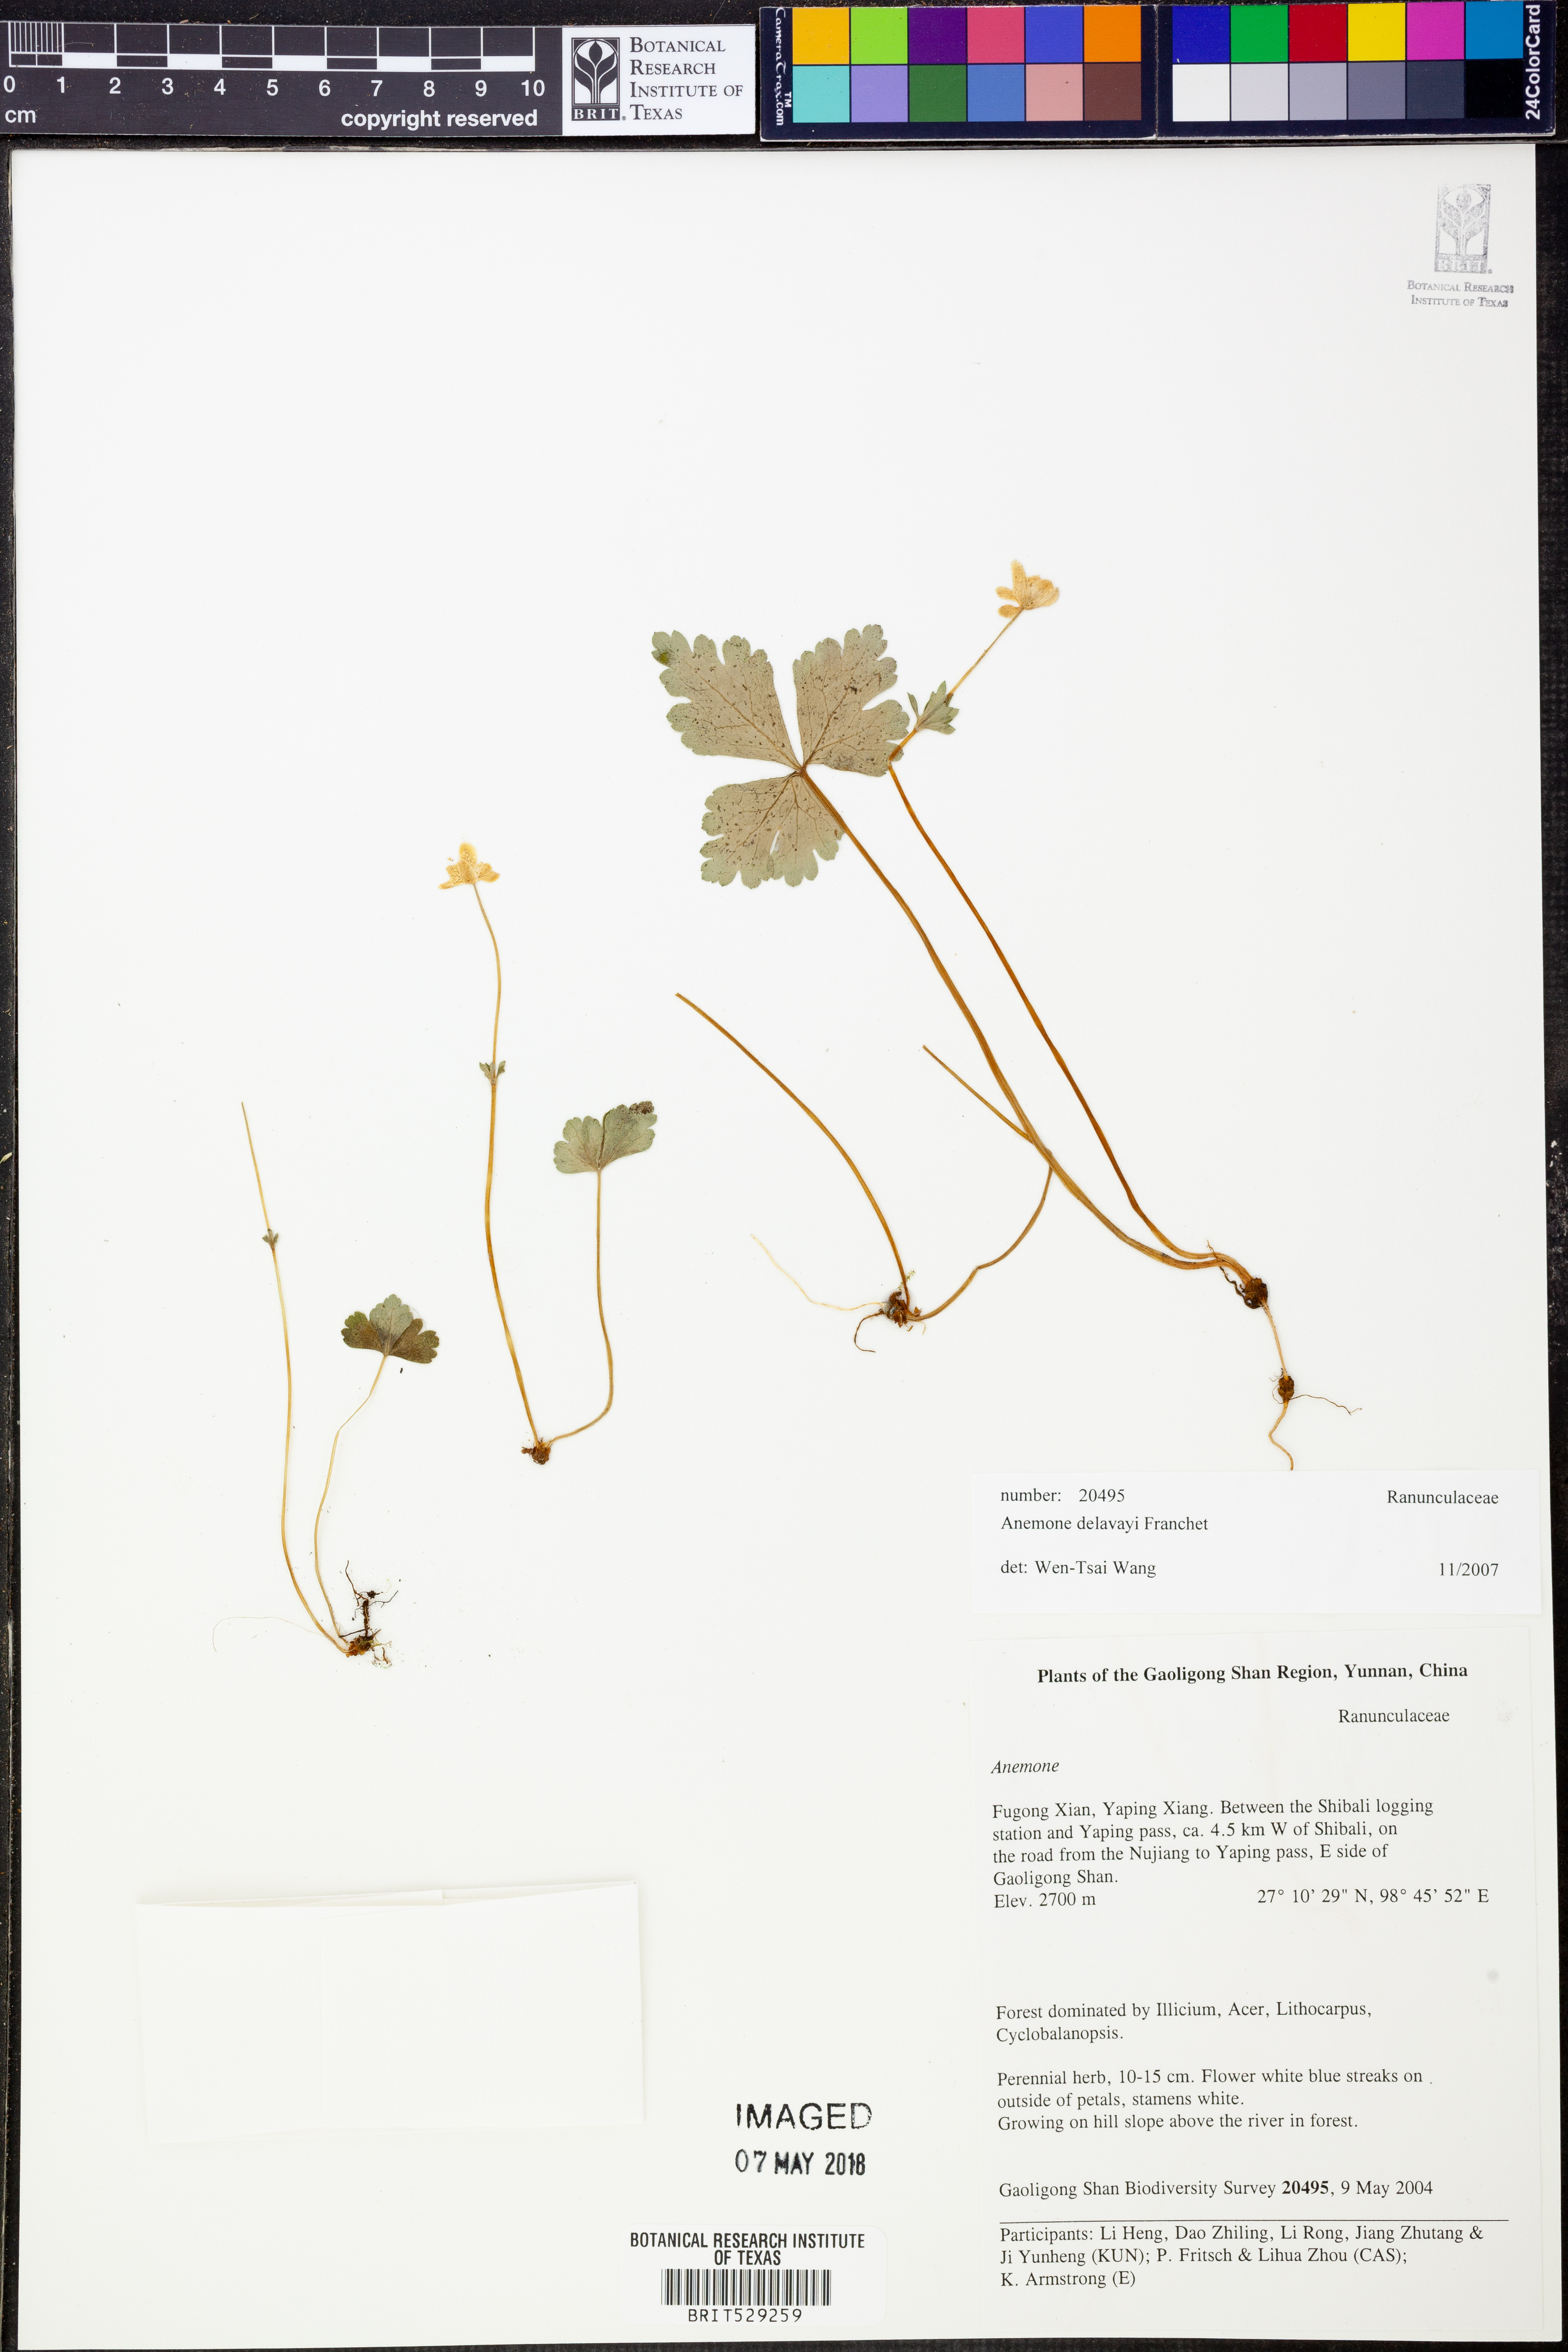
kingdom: Plantae
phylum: Tracheophyta
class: Magnoliopsida
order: Ranunculales
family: Ranunculaceae
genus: Anemone
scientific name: Anemone delavayi
